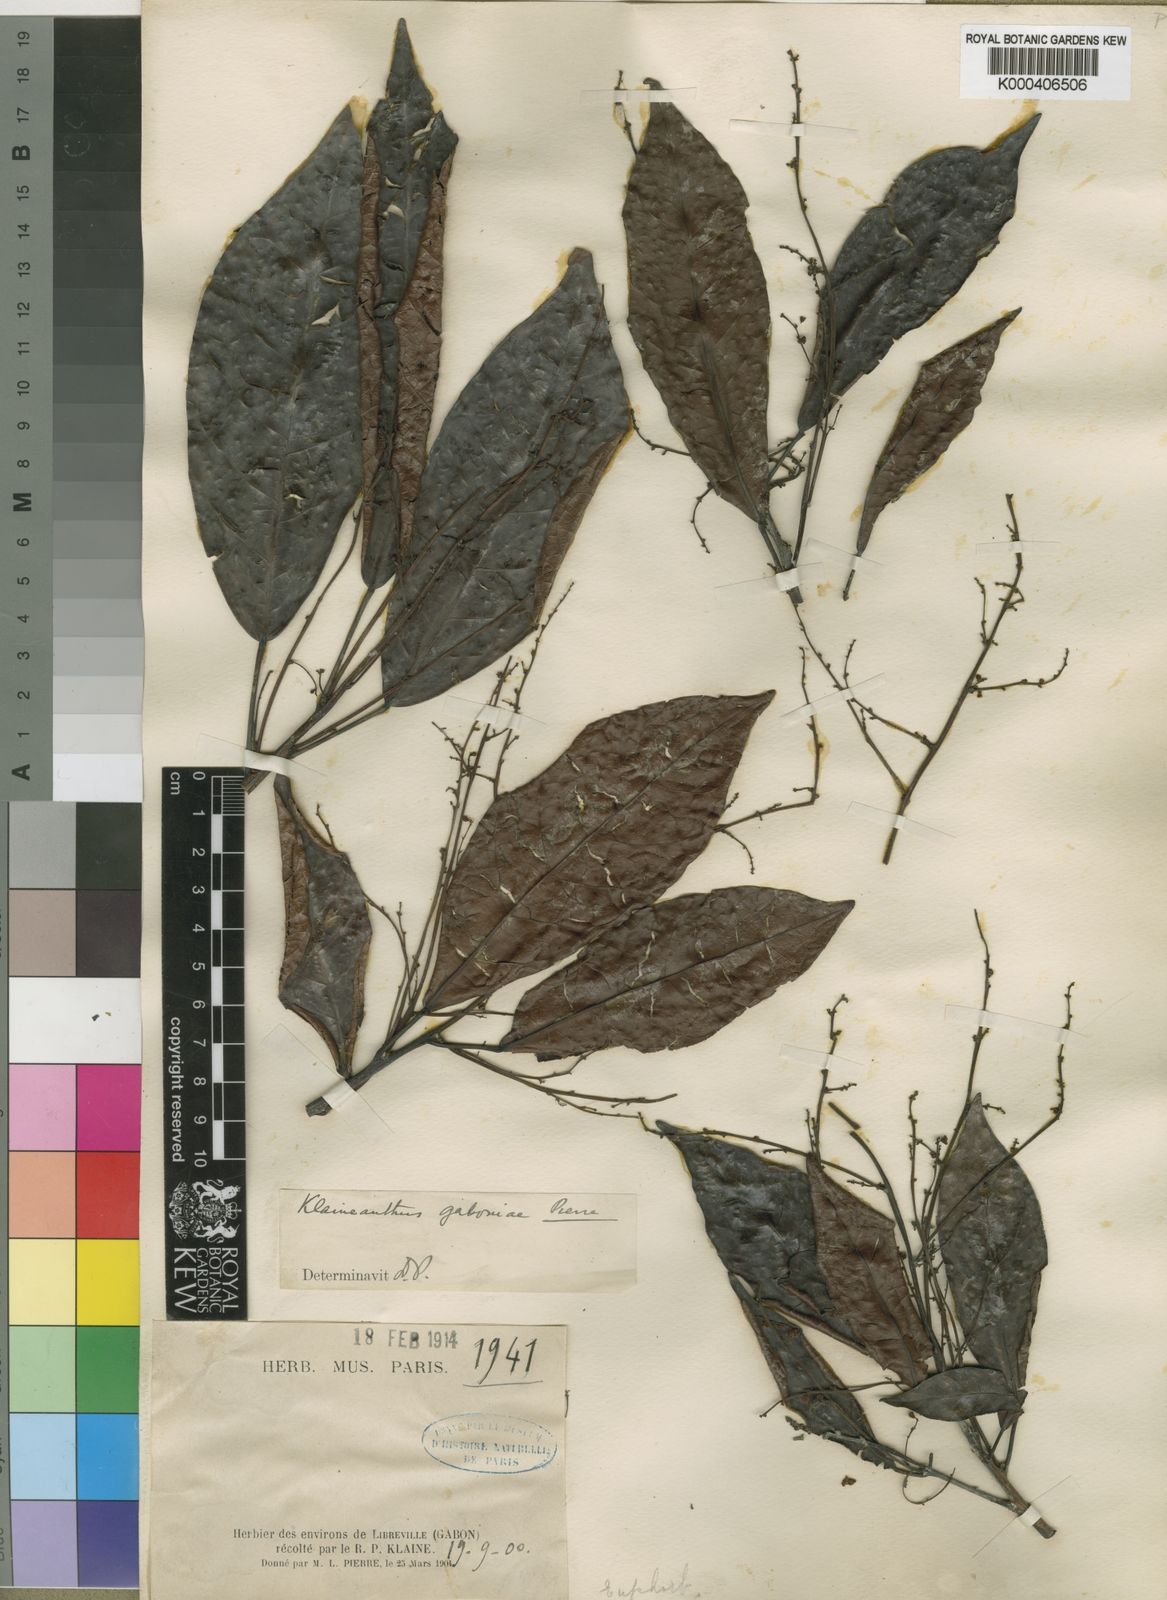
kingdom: Plantae
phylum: Tracheophyta
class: Magnoliopsida
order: Malpighiales
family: Euphorbiaceae
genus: Klaineanthus
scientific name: Klaineanthus
